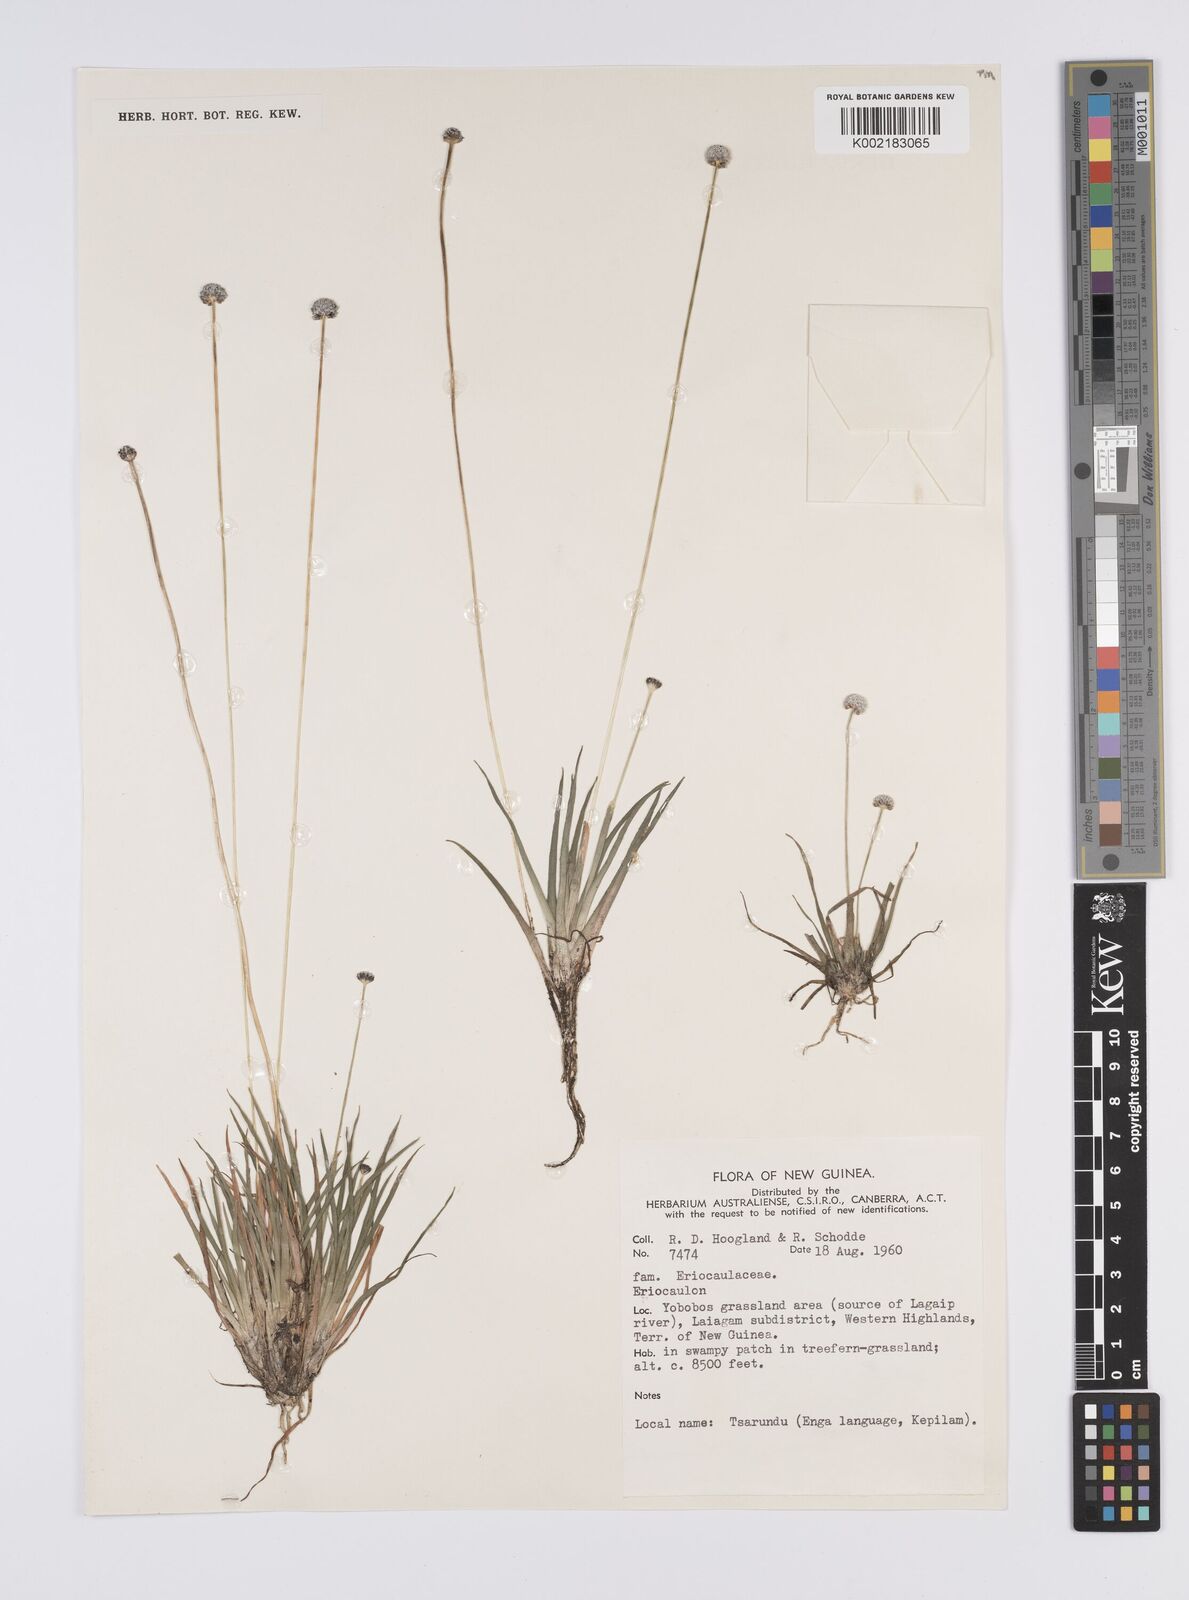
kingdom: Plantae
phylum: Tracheophyta
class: Liliopsida
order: Poales
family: Eriocaulaceae
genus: Eriocaulon
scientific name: Eriocaulon
